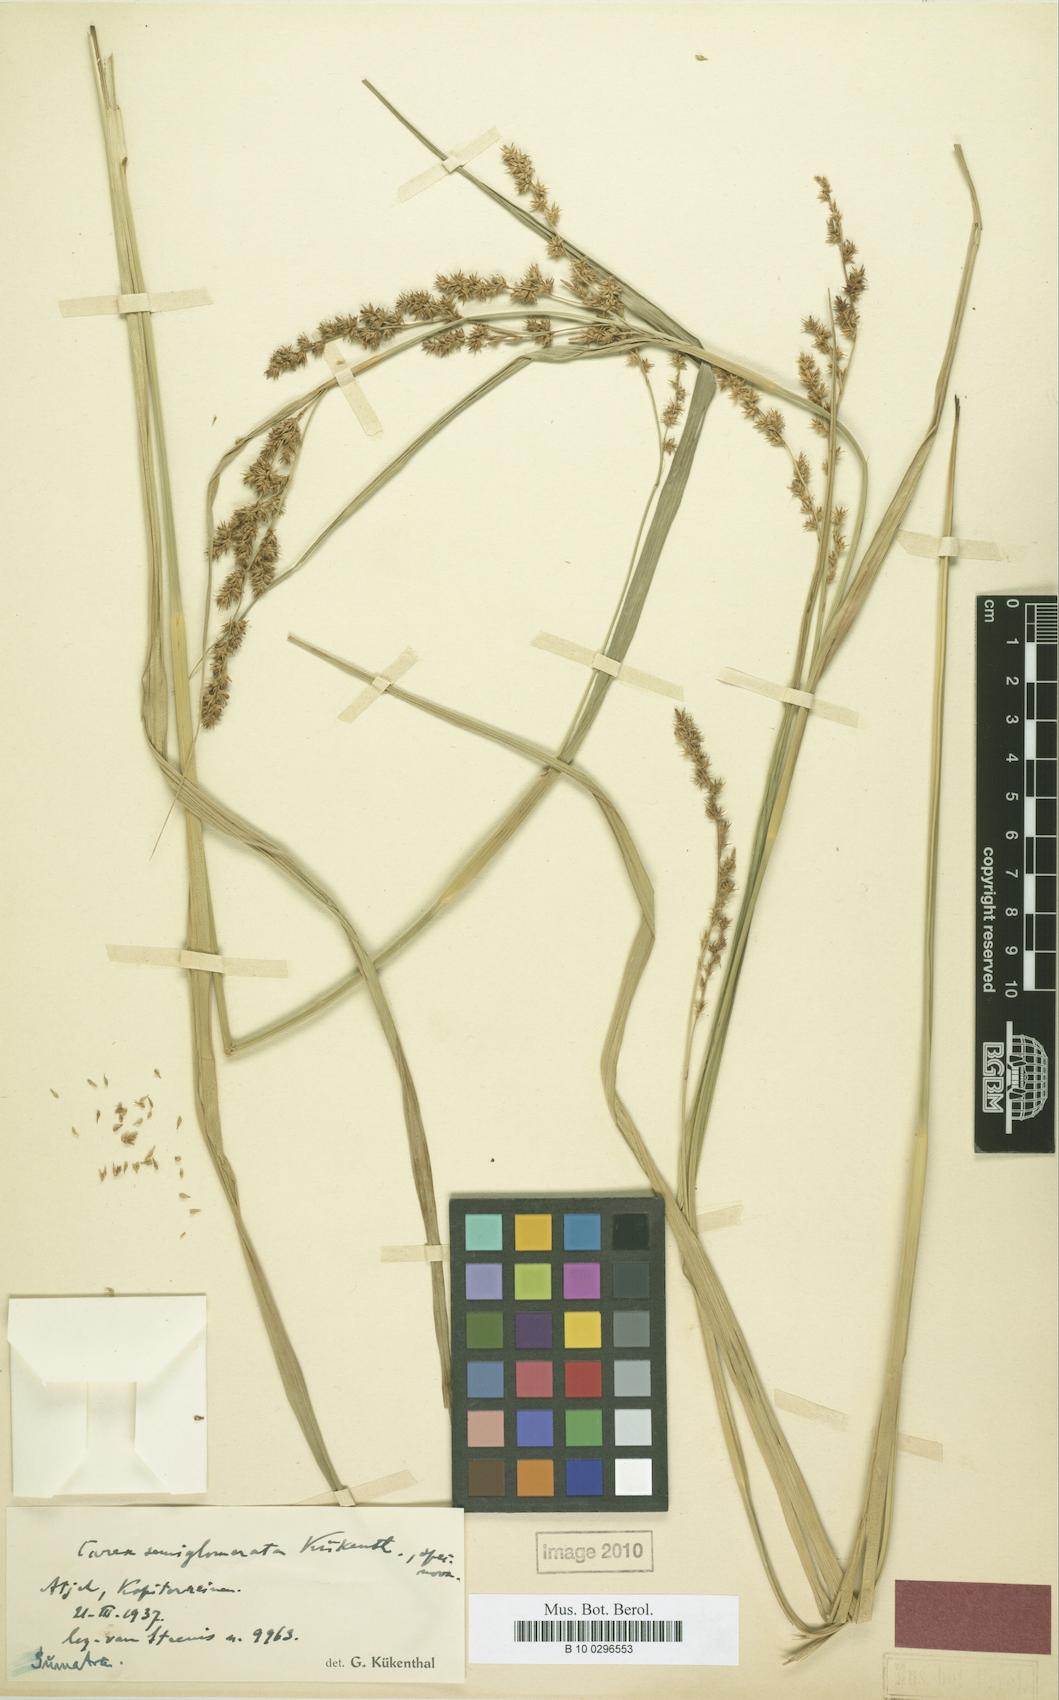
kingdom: Plantae
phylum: Tracheophyta
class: Liliopsida
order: Poales
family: Cyperaceae
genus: Carex
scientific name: Carex rafflesiana
